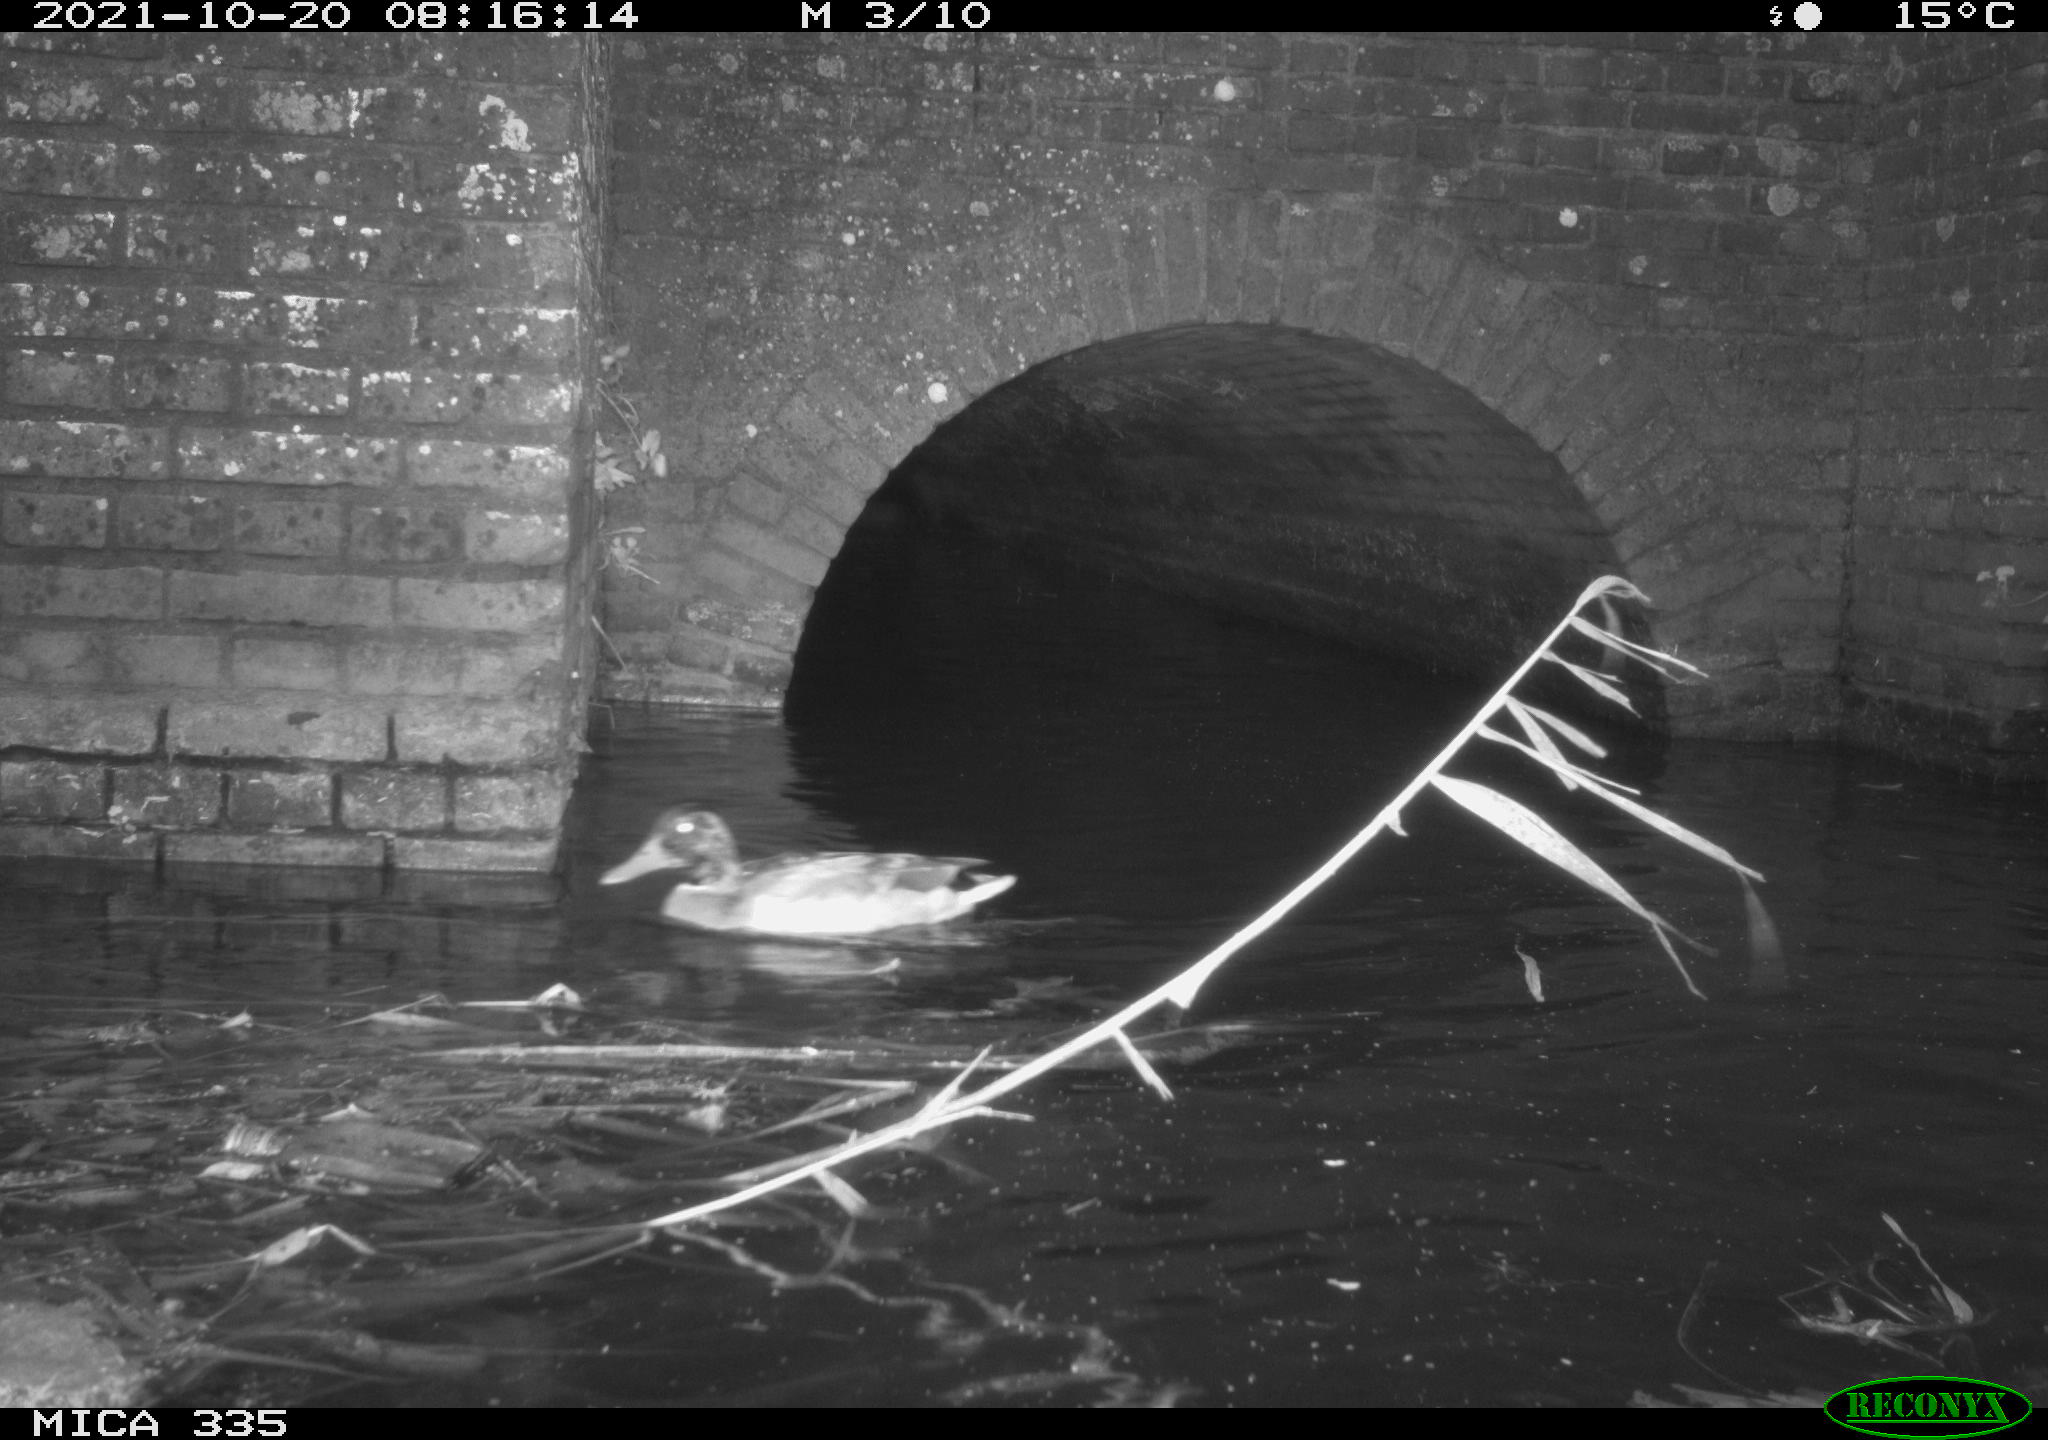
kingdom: Animalia
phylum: Chordata
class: Aves
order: Anseriformes
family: Anatidae
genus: Anas
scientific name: Anas platyrhynchos
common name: Mallard
